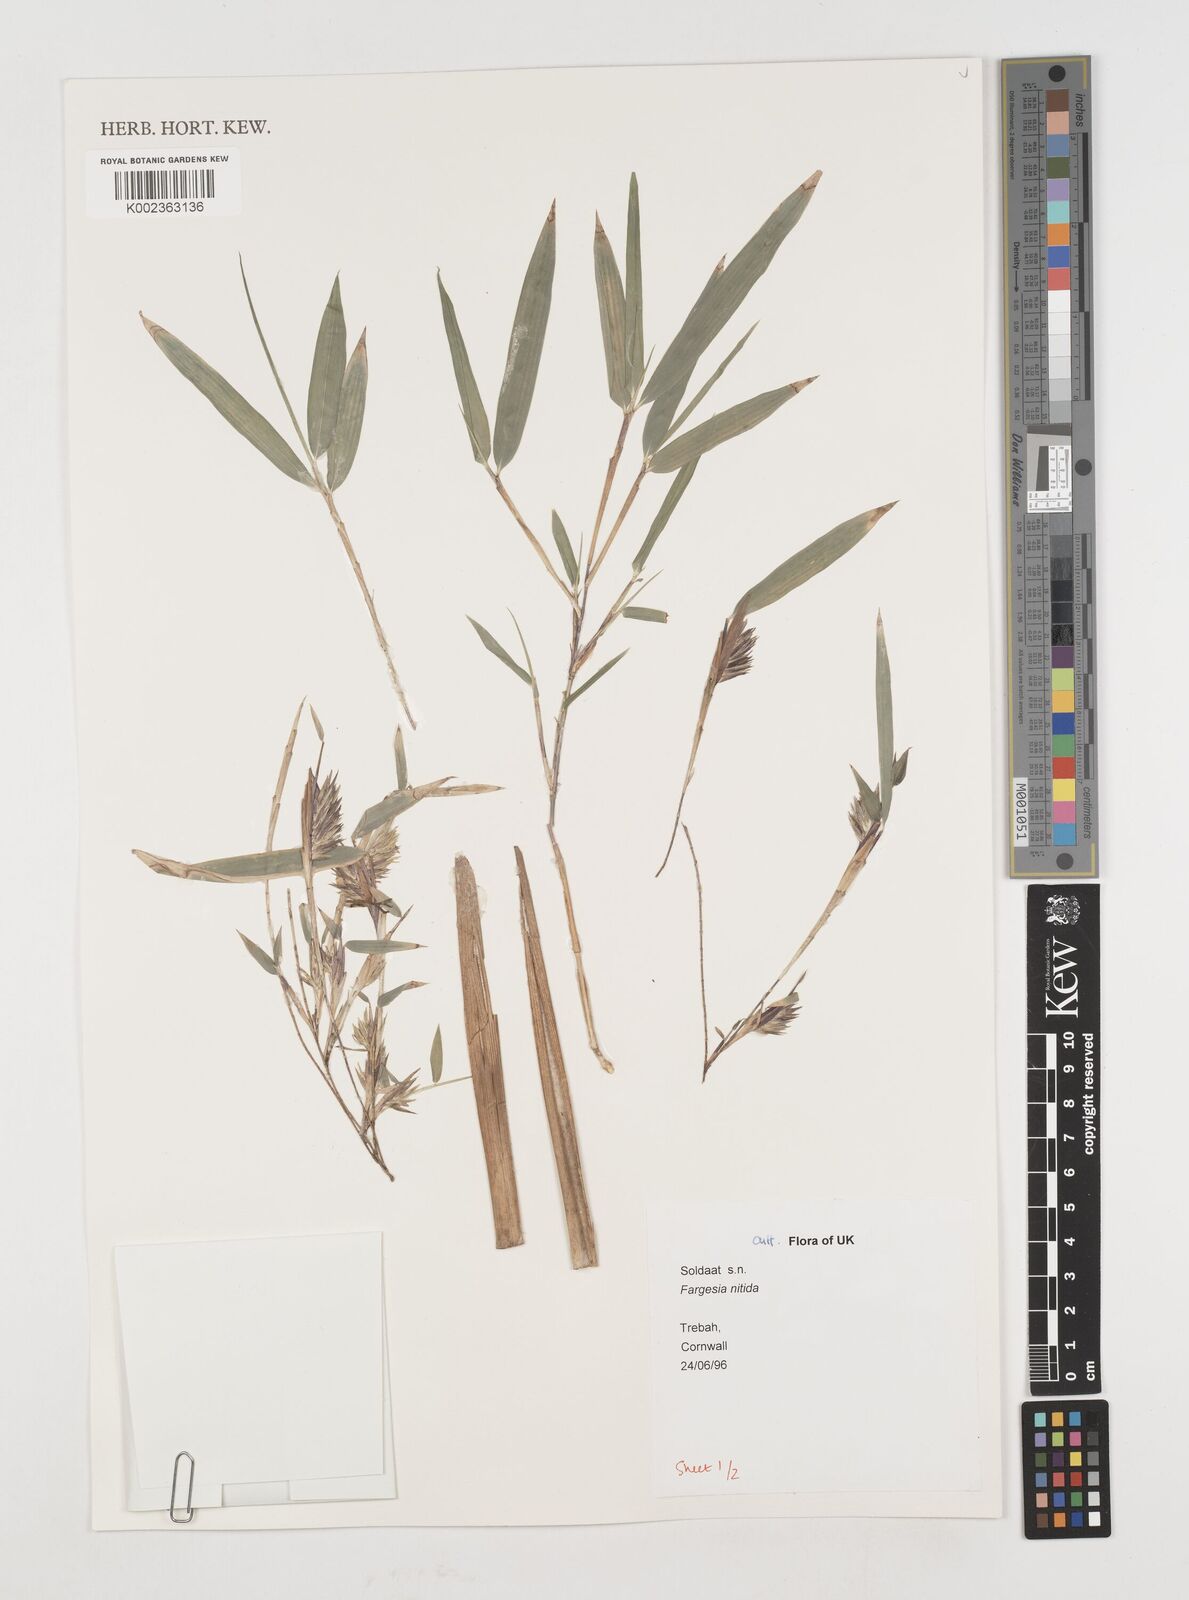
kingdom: Plantae
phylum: Tracheophyta
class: Liliopsida
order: Poales
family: Poaceae
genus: Fargesia
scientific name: Fargesia nitida ex
